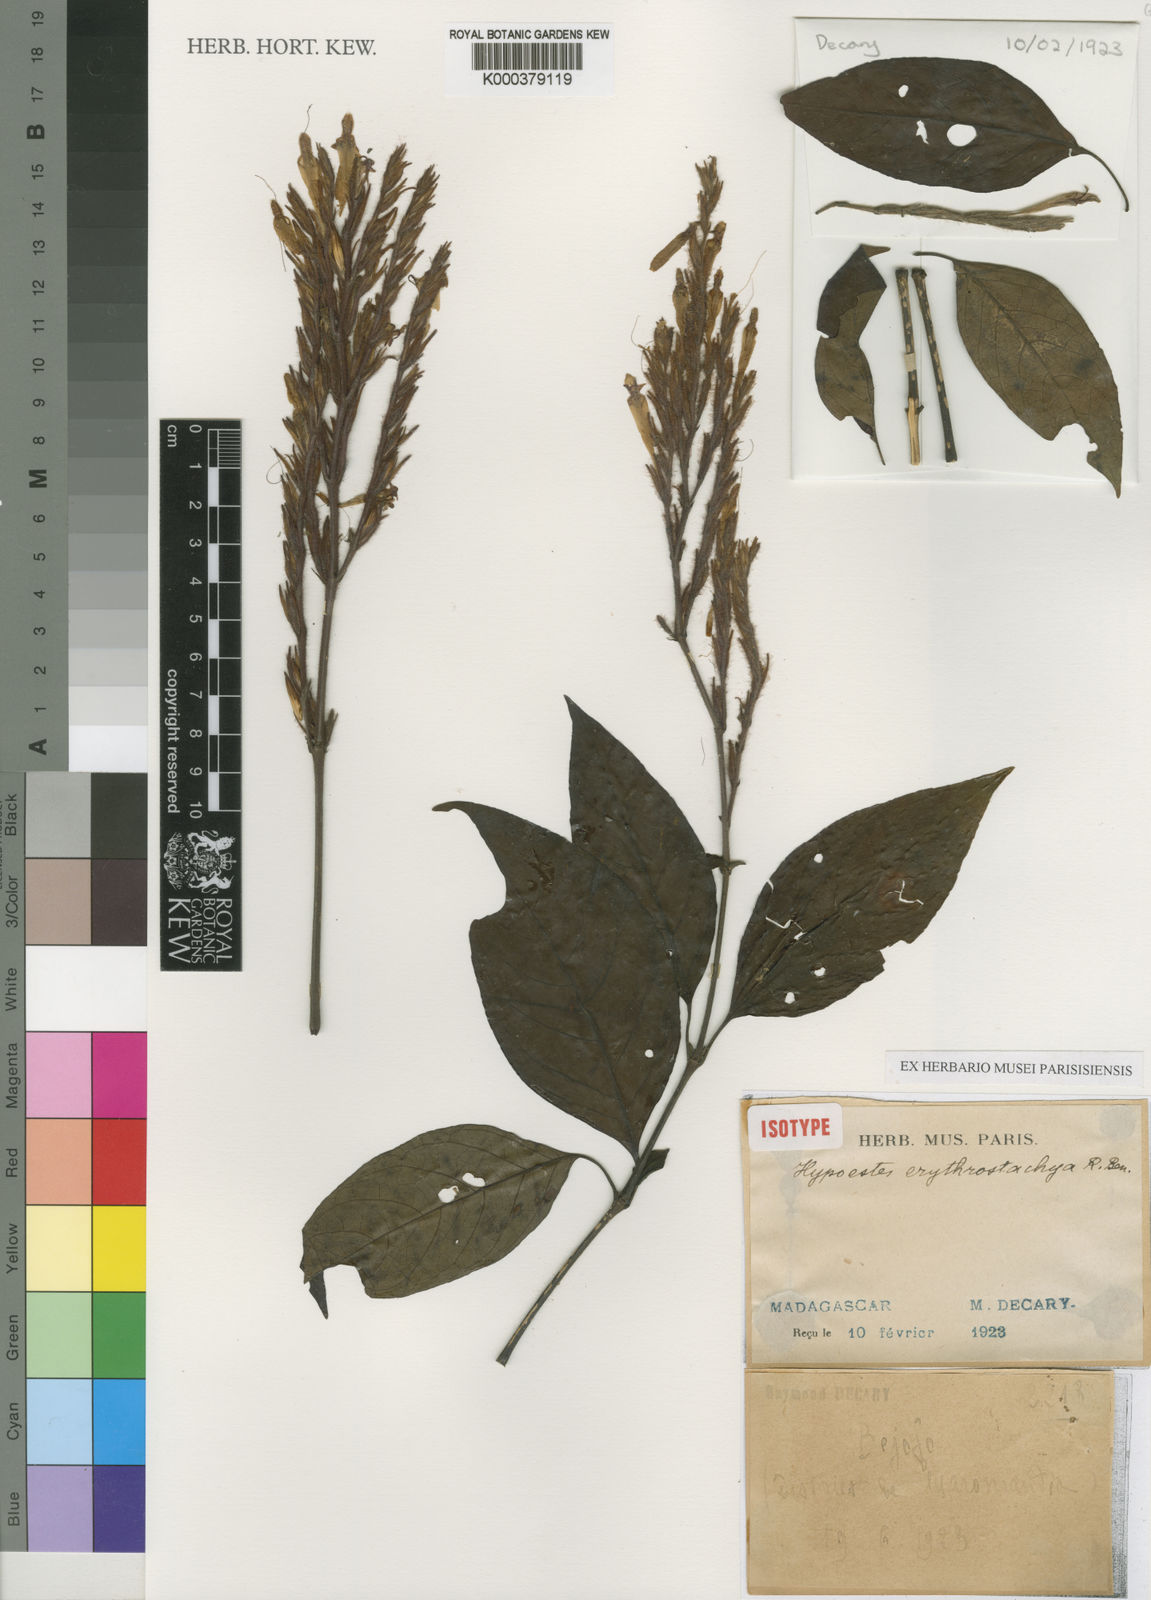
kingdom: Plantae
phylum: Tracheophyta
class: Magnoliopsida
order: Lamiales
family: Acanthaceae
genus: Hypoestes
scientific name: Hypoestes erythrostachya
